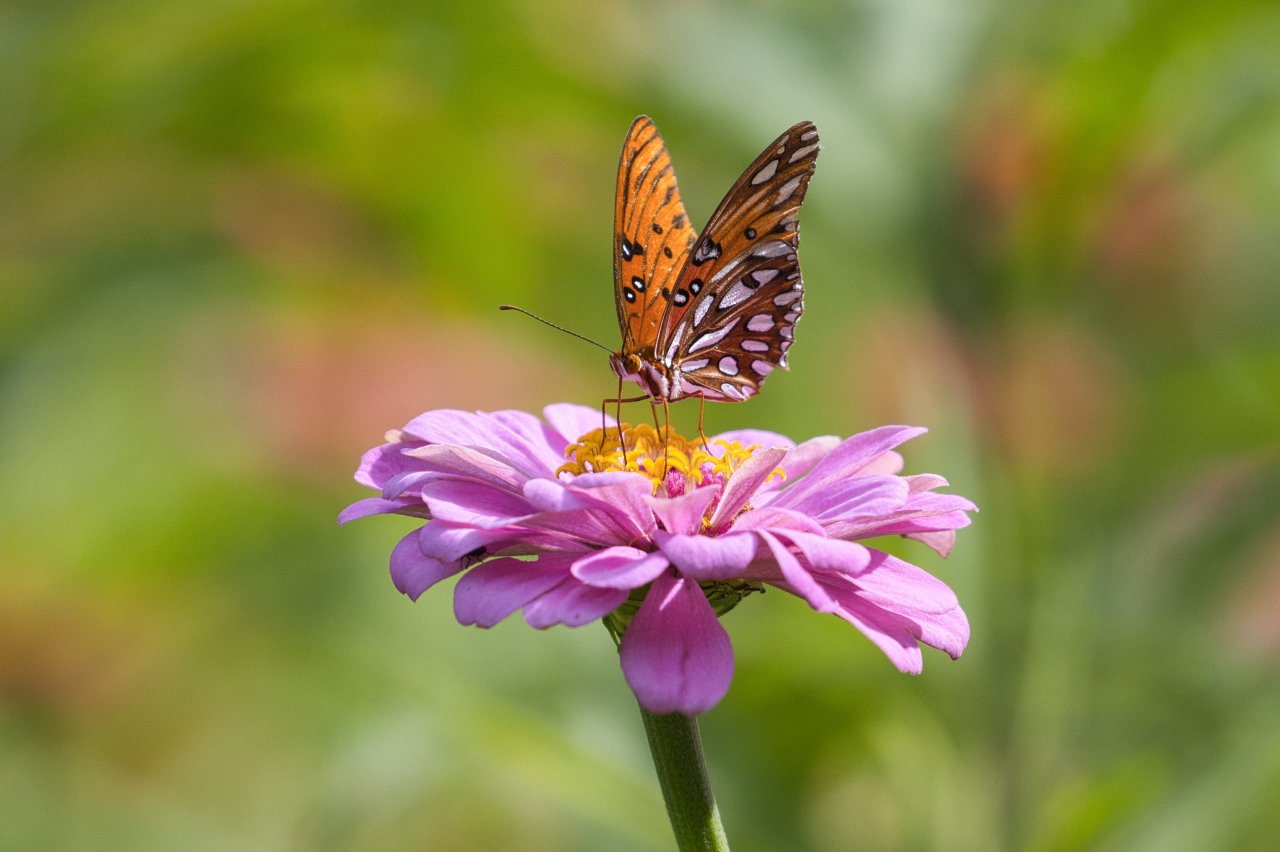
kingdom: Animalia
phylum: Arthropoda
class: Insecta
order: Lepidoptera
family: Nymphalidae
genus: Dione
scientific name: Dione vanillae
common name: Gulf Fritillary
